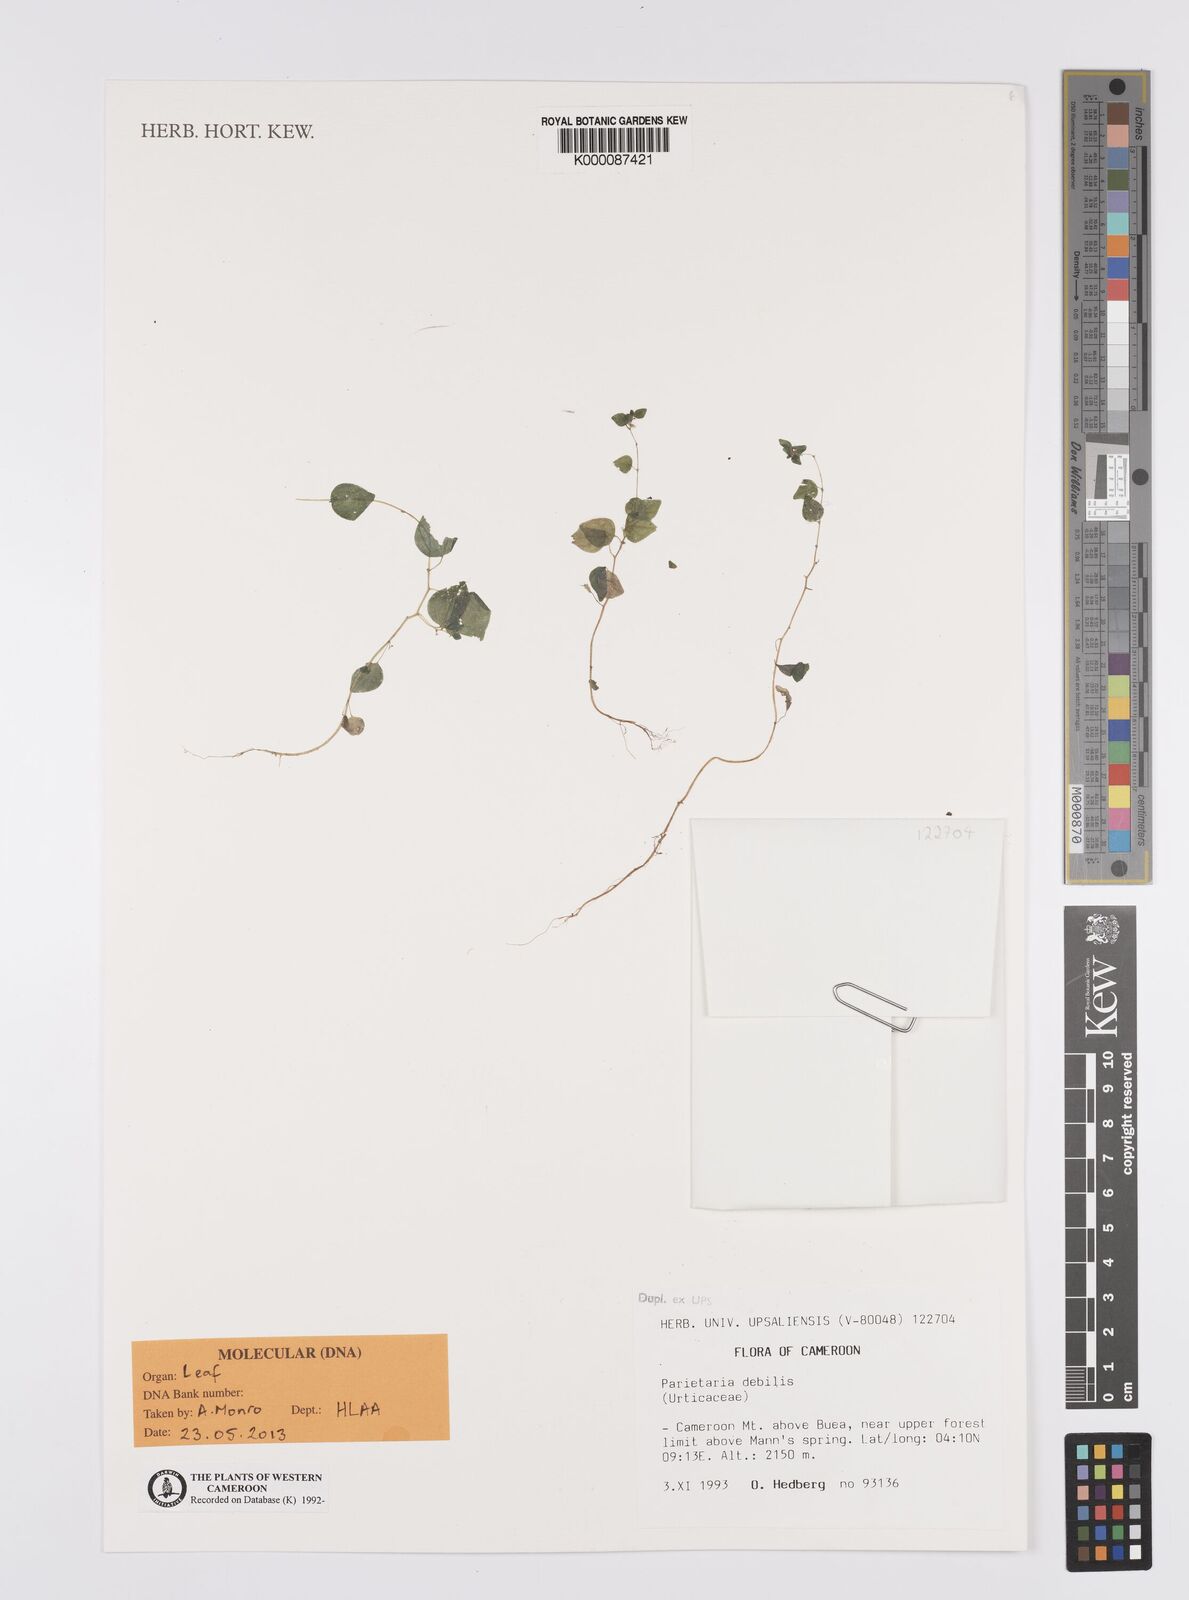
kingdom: Plantae
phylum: Tracheophyta
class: Magnoliopsida
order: Rosales
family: Urticaceae
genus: Parietaria
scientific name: Parietaria debilis
